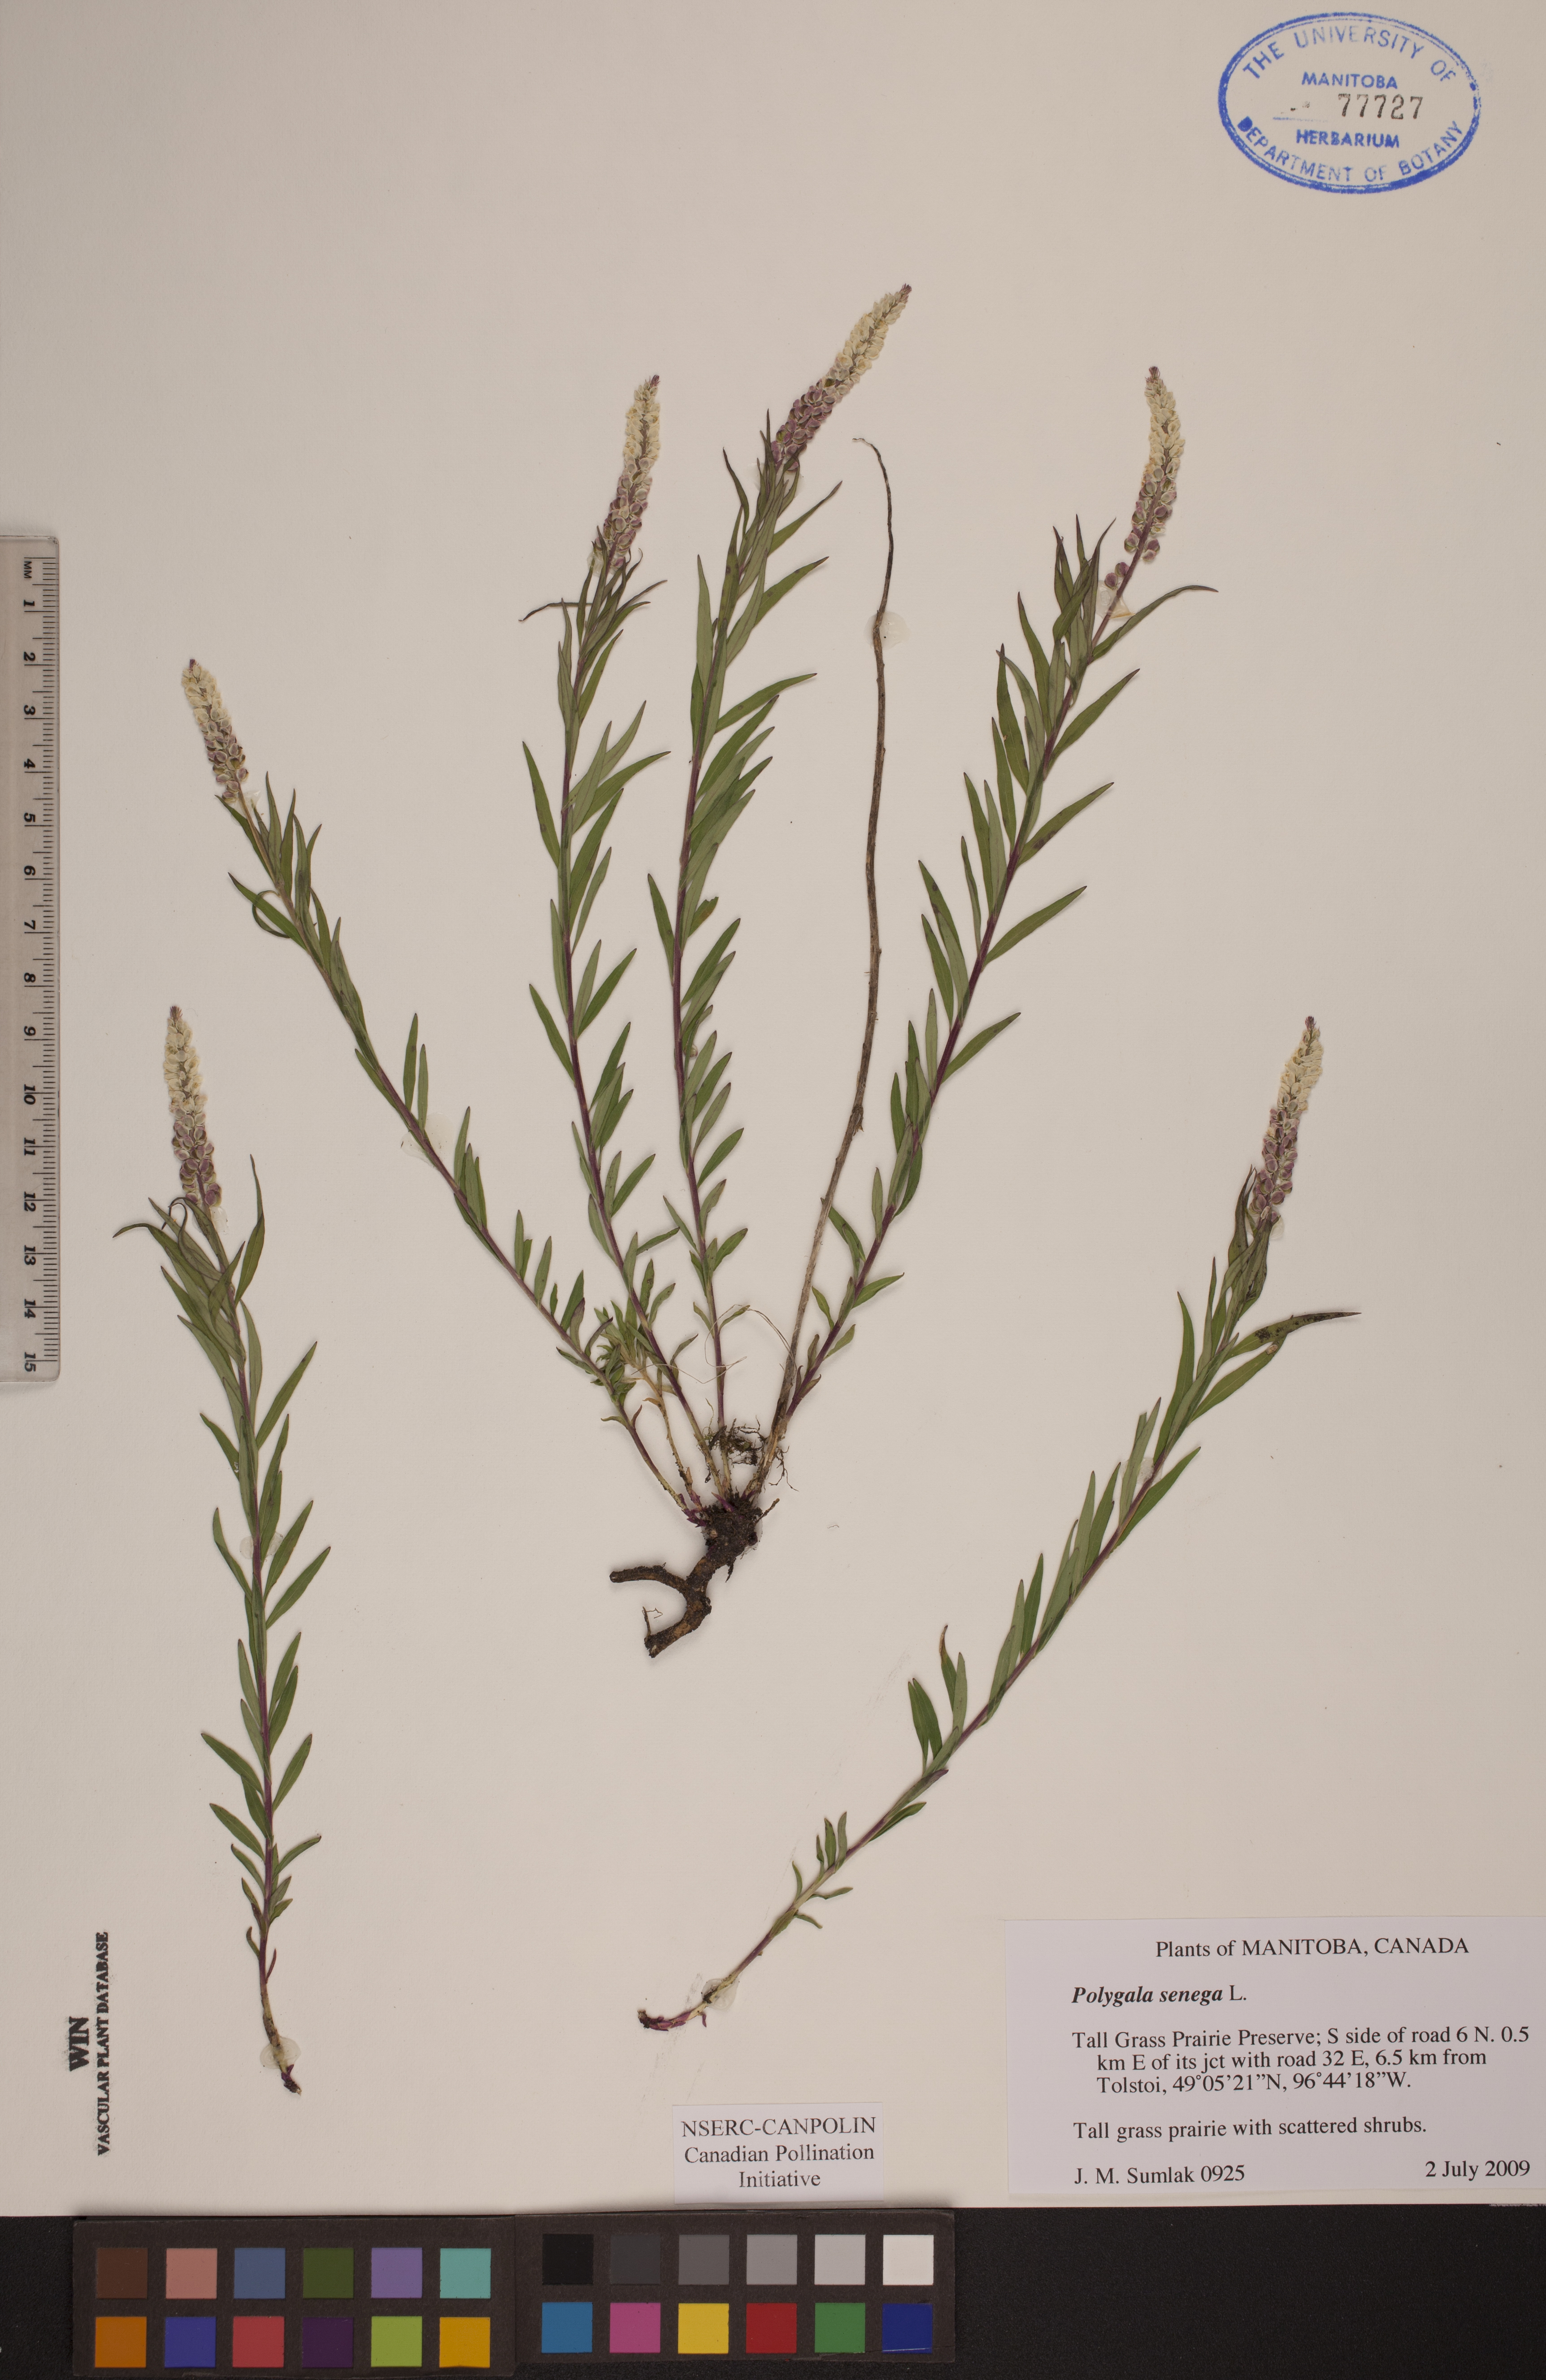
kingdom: Plantae
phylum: Tracheophyta
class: Magnoliopsida
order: Fabales
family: Polygalaceae
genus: Polygala
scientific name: Polygala senega
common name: Seneca snakeroot
